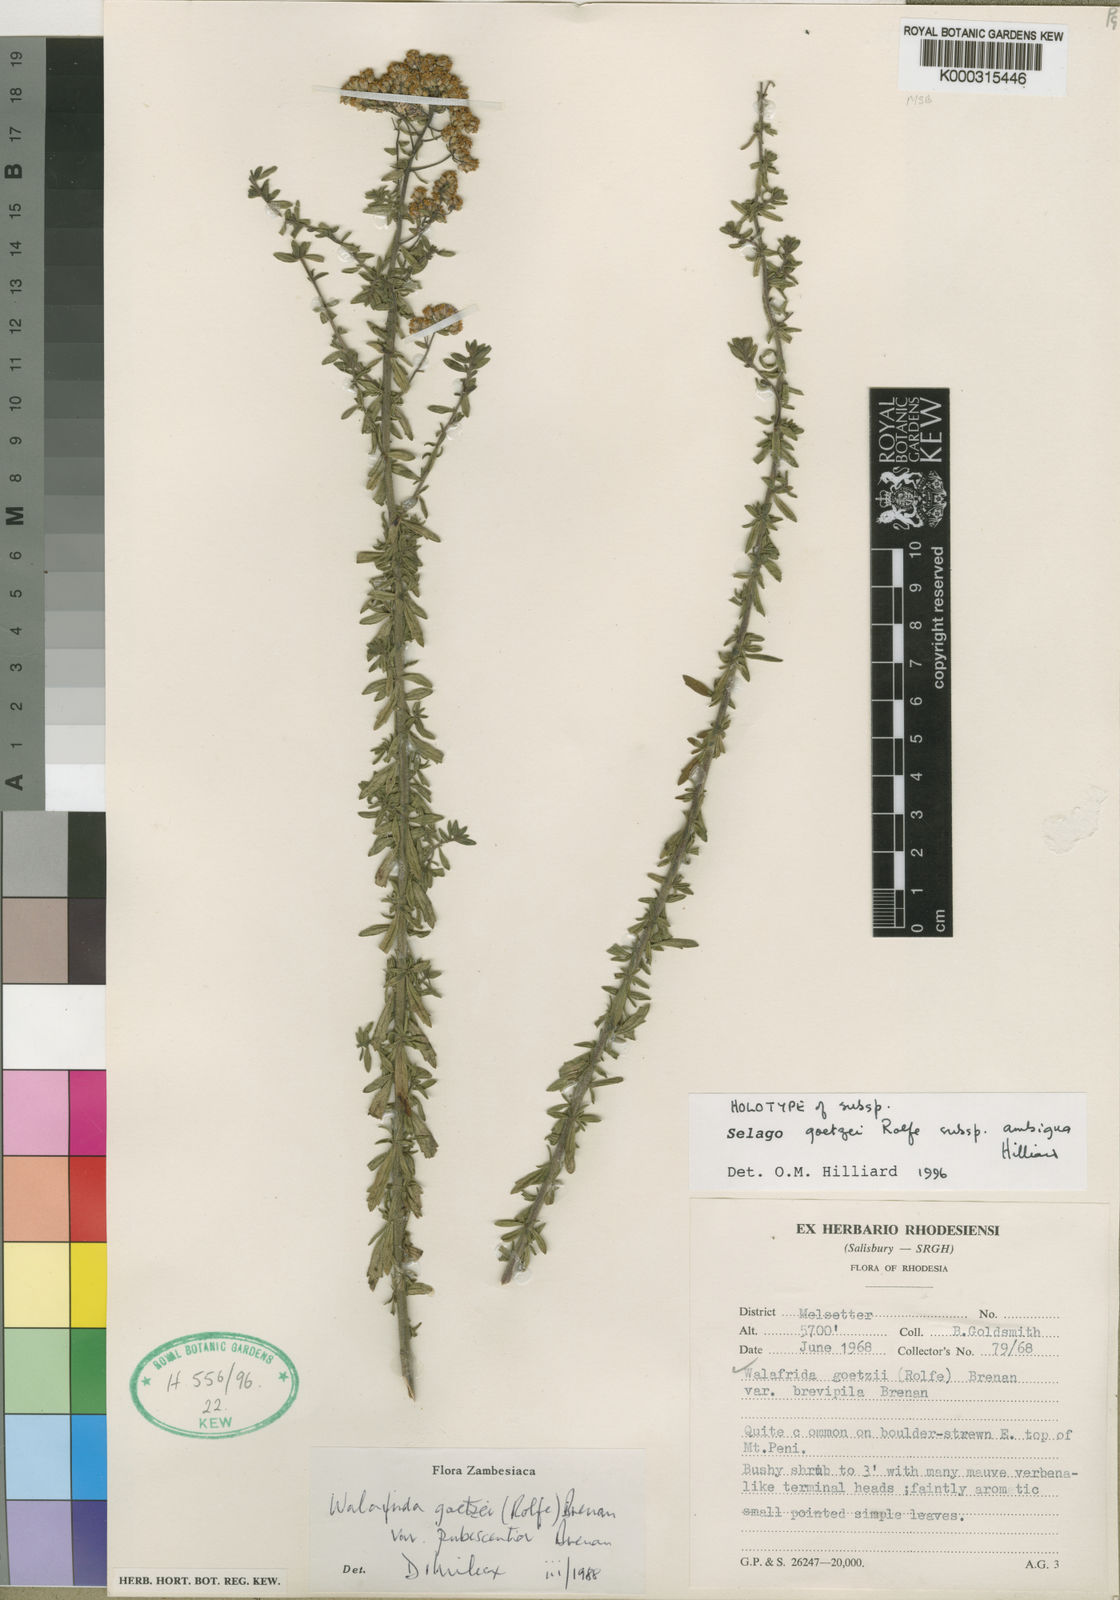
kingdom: Plantae
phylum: Tracheophyta
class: Magnoliopsida
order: Lamiales
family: Scrophulariaceae
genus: Selago
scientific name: Selago goetzei
